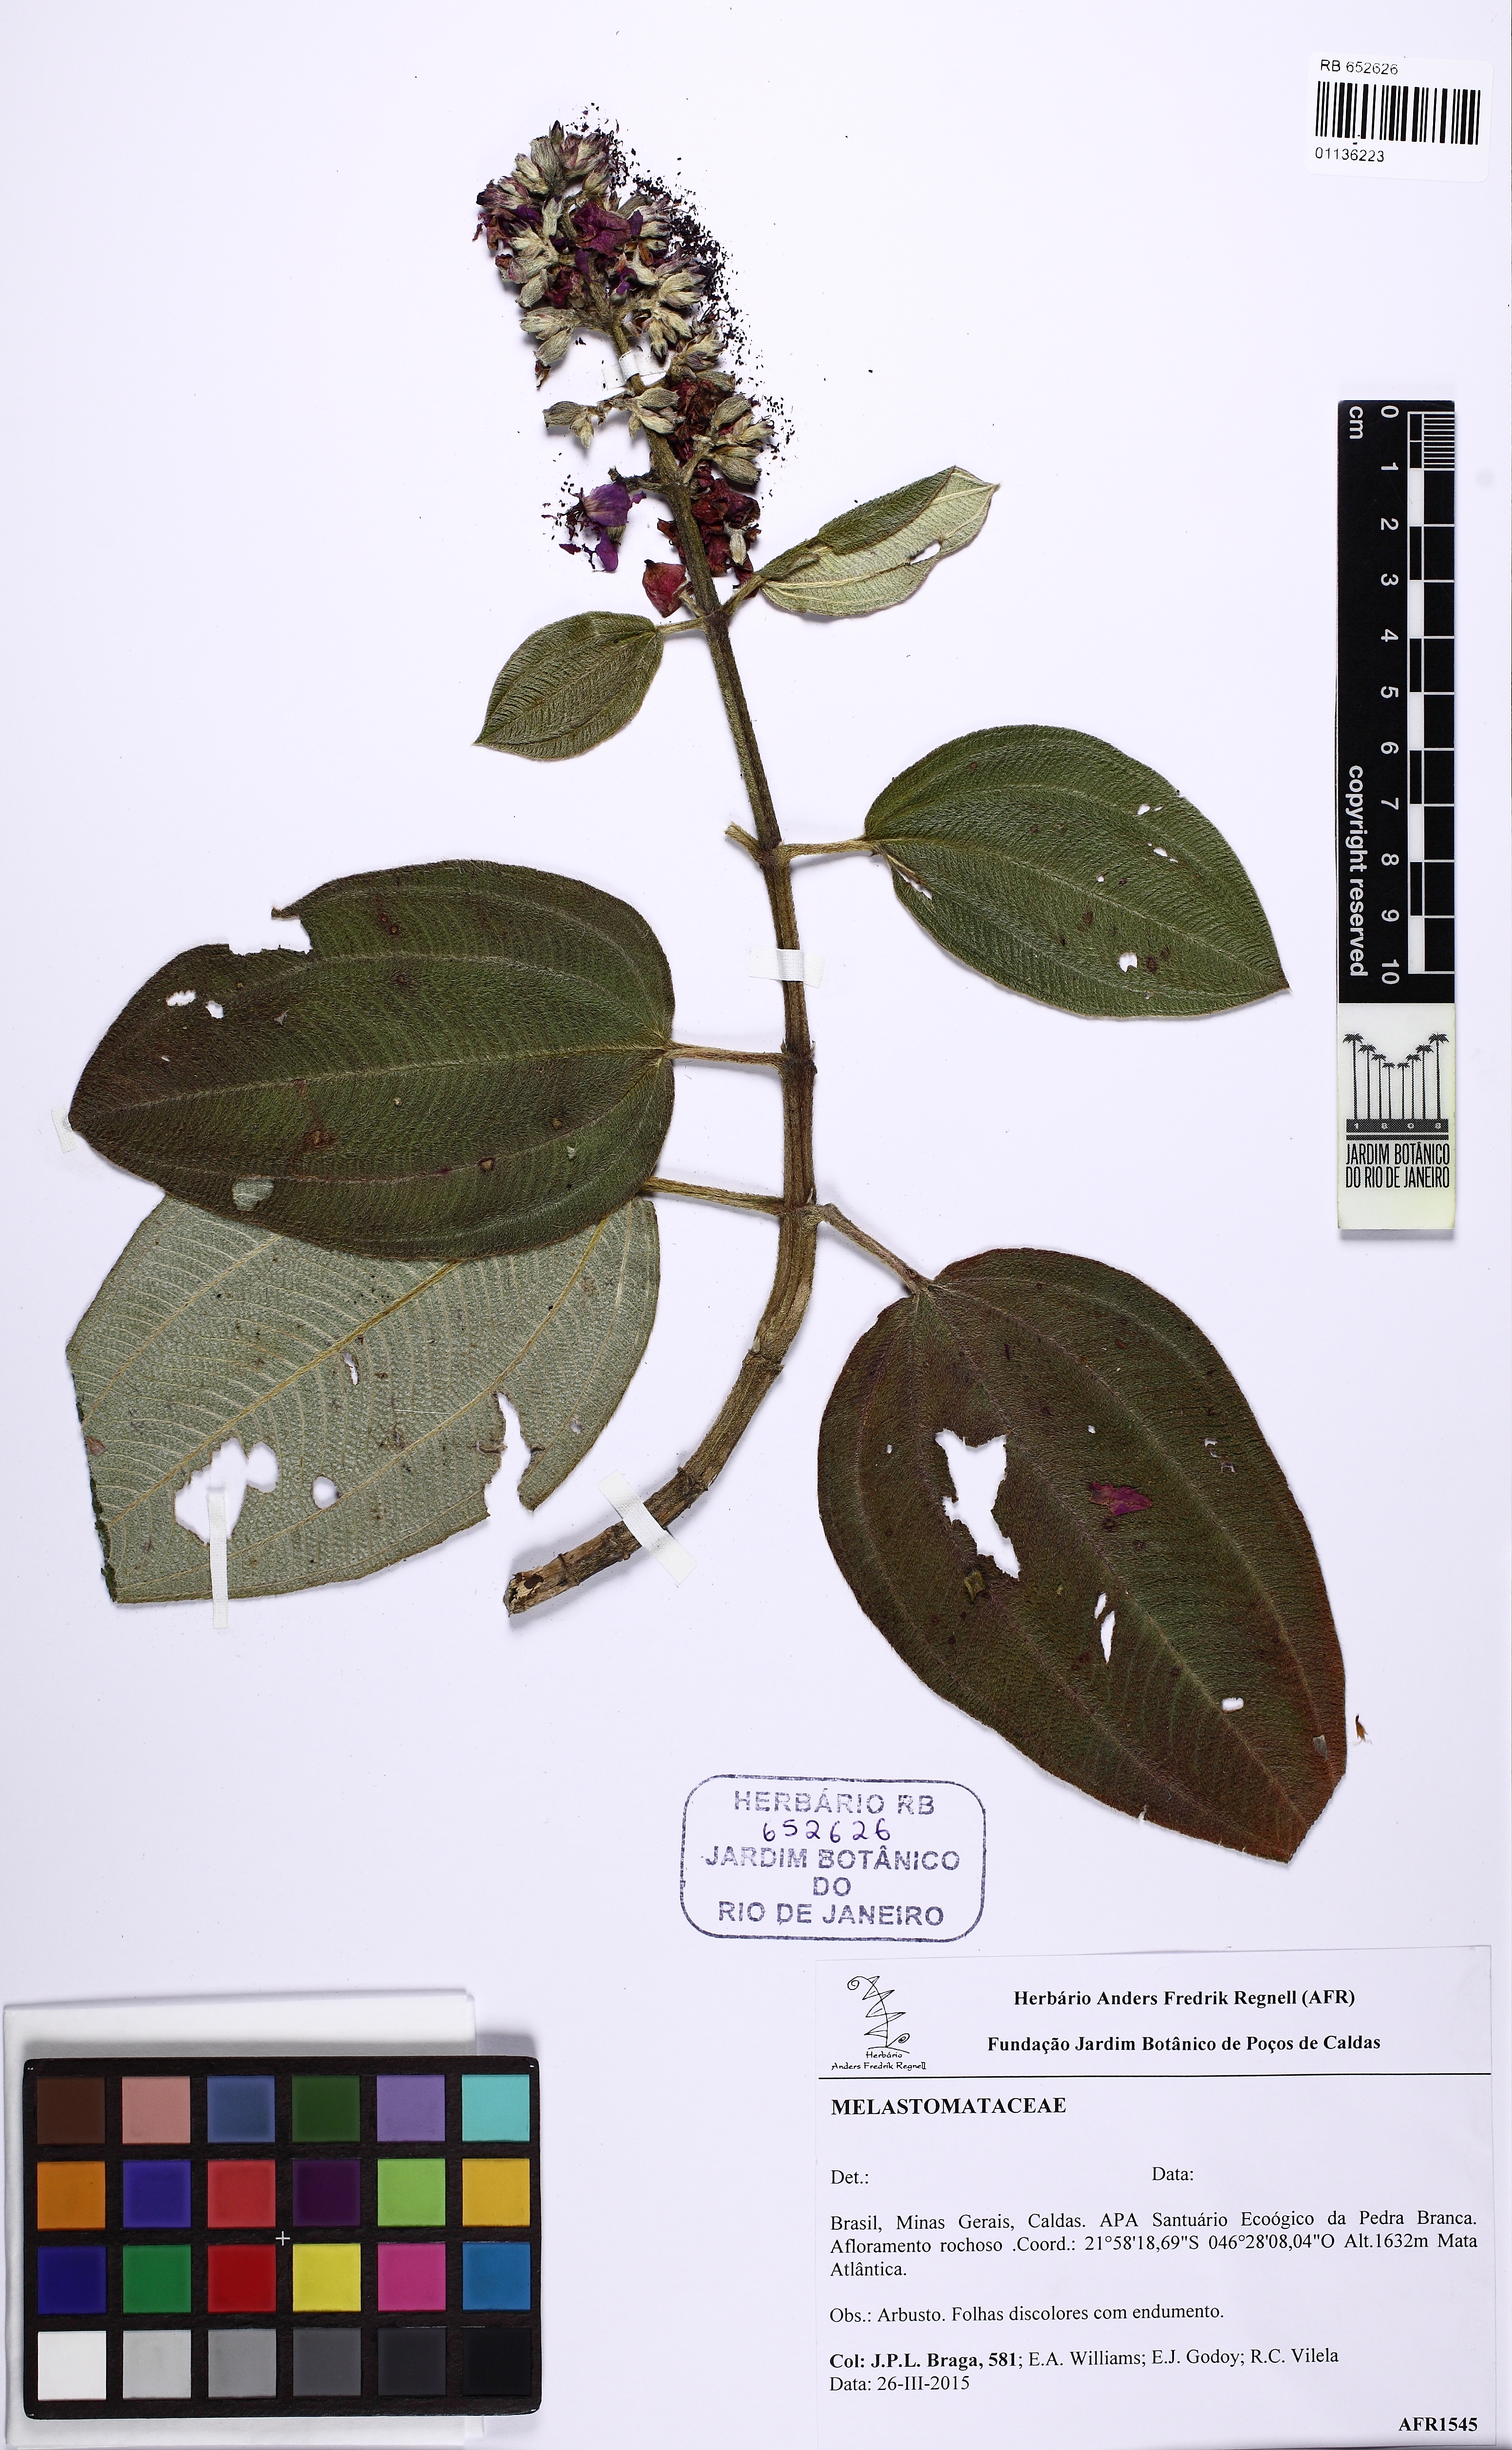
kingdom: Plantae
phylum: Tracheophyta
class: Magnoliopsida
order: Myrtales
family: Melastomataceae
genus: Tibouchina
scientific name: Tibouchina
